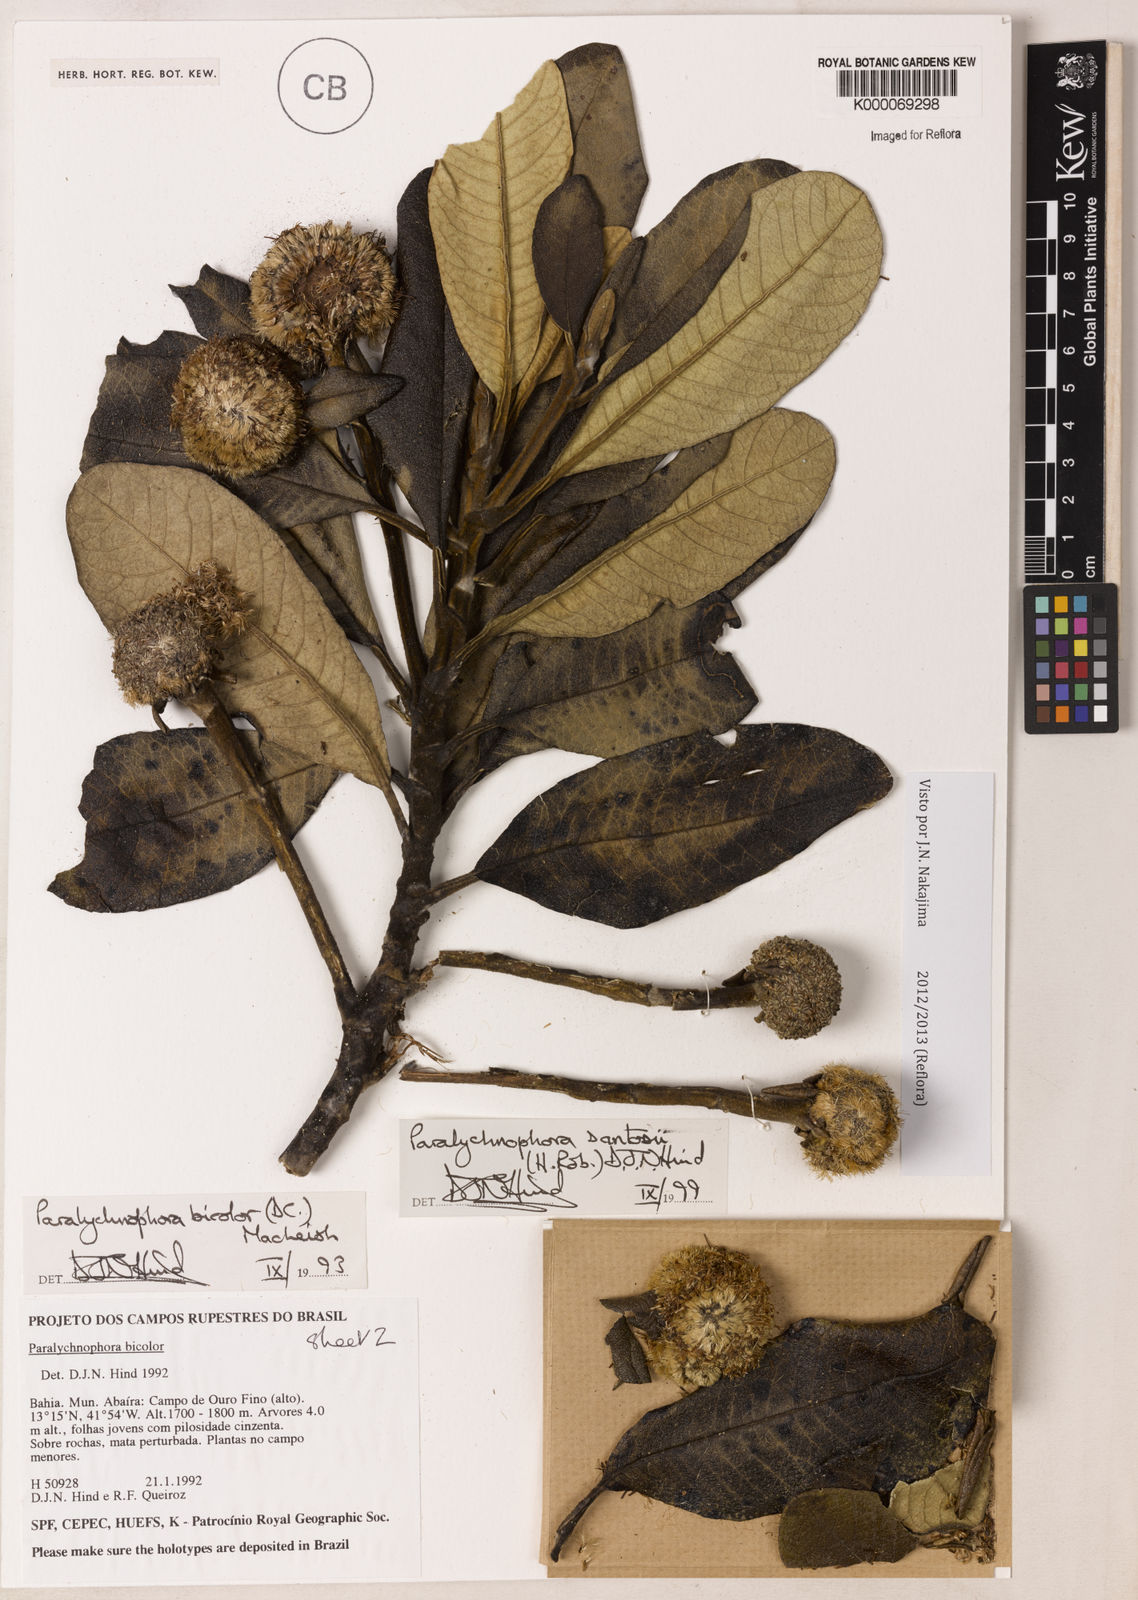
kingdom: Plantae
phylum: Tracheophyta
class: Magnoliopsida
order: Asterales
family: Asteraceae
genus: Paralychnophora
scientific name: Paralychnophora santosii
